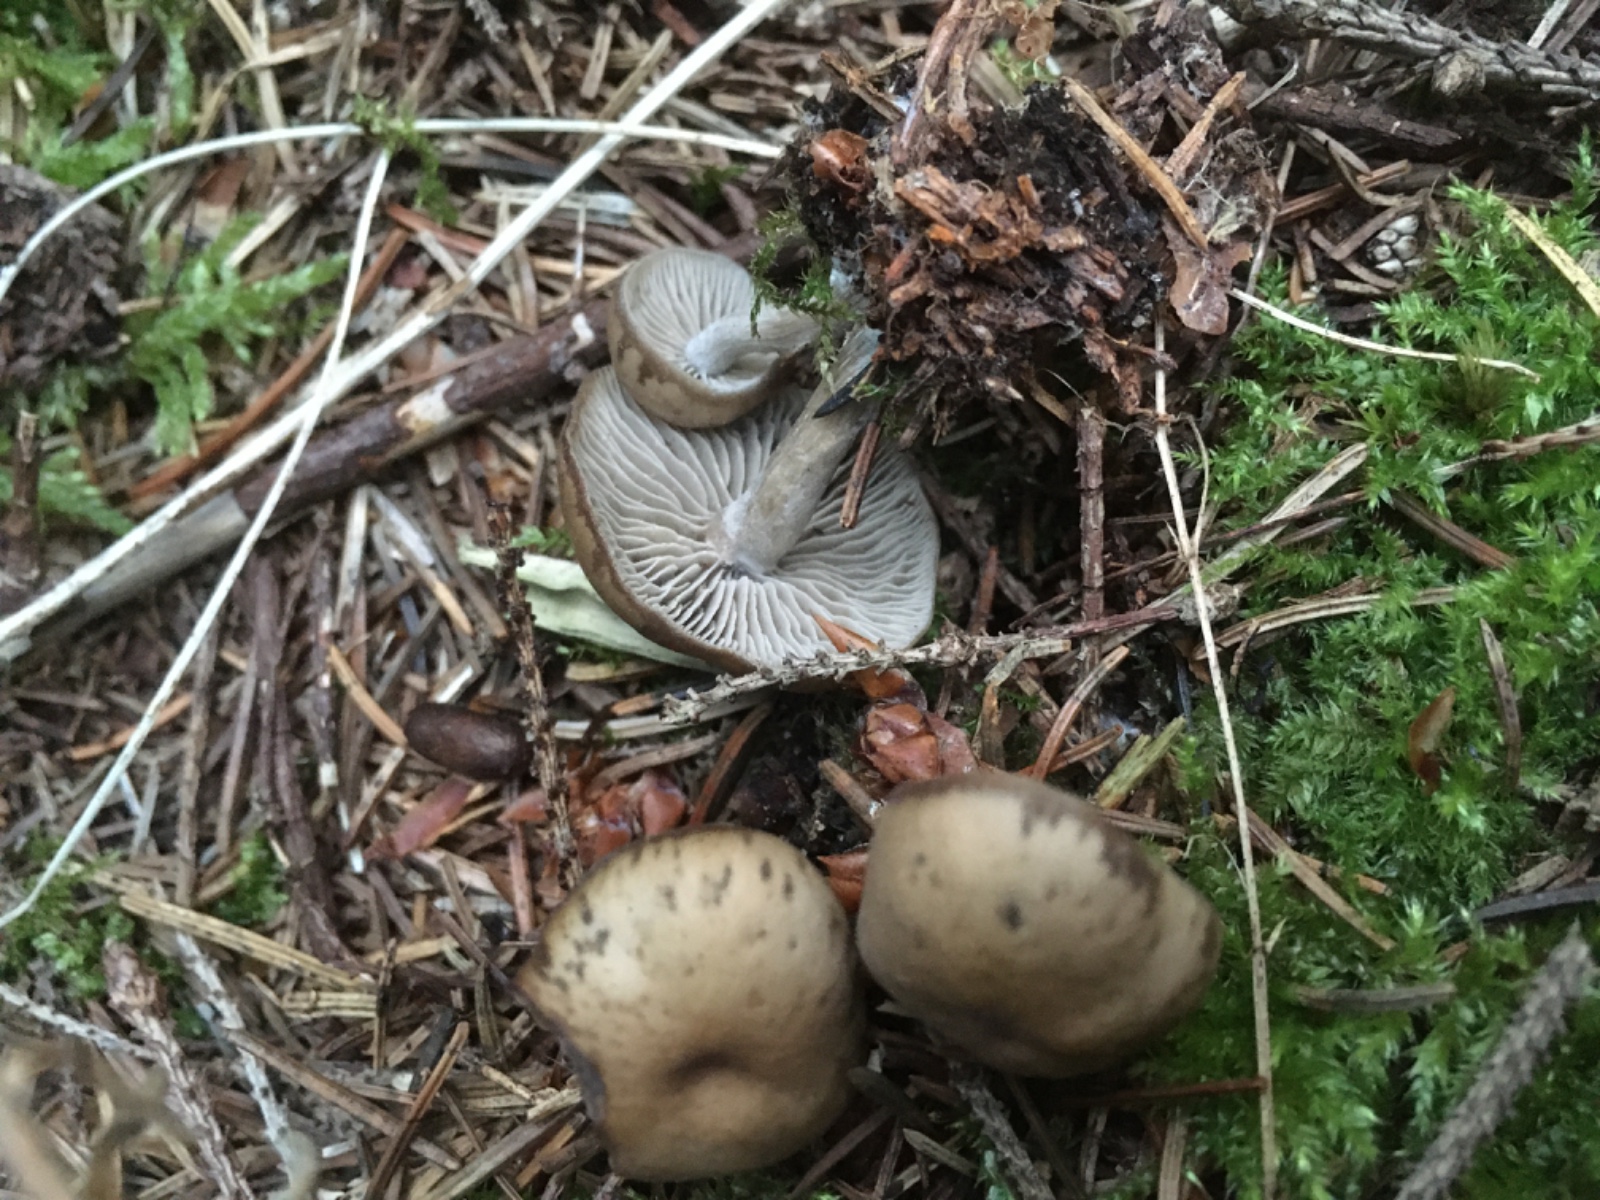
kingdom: Fungi
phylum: Basidiomycota
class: Agaricomycetes
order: Agaricales
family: Lyophyllaceae
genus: Tephrocybe
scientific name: Tephrocybe
